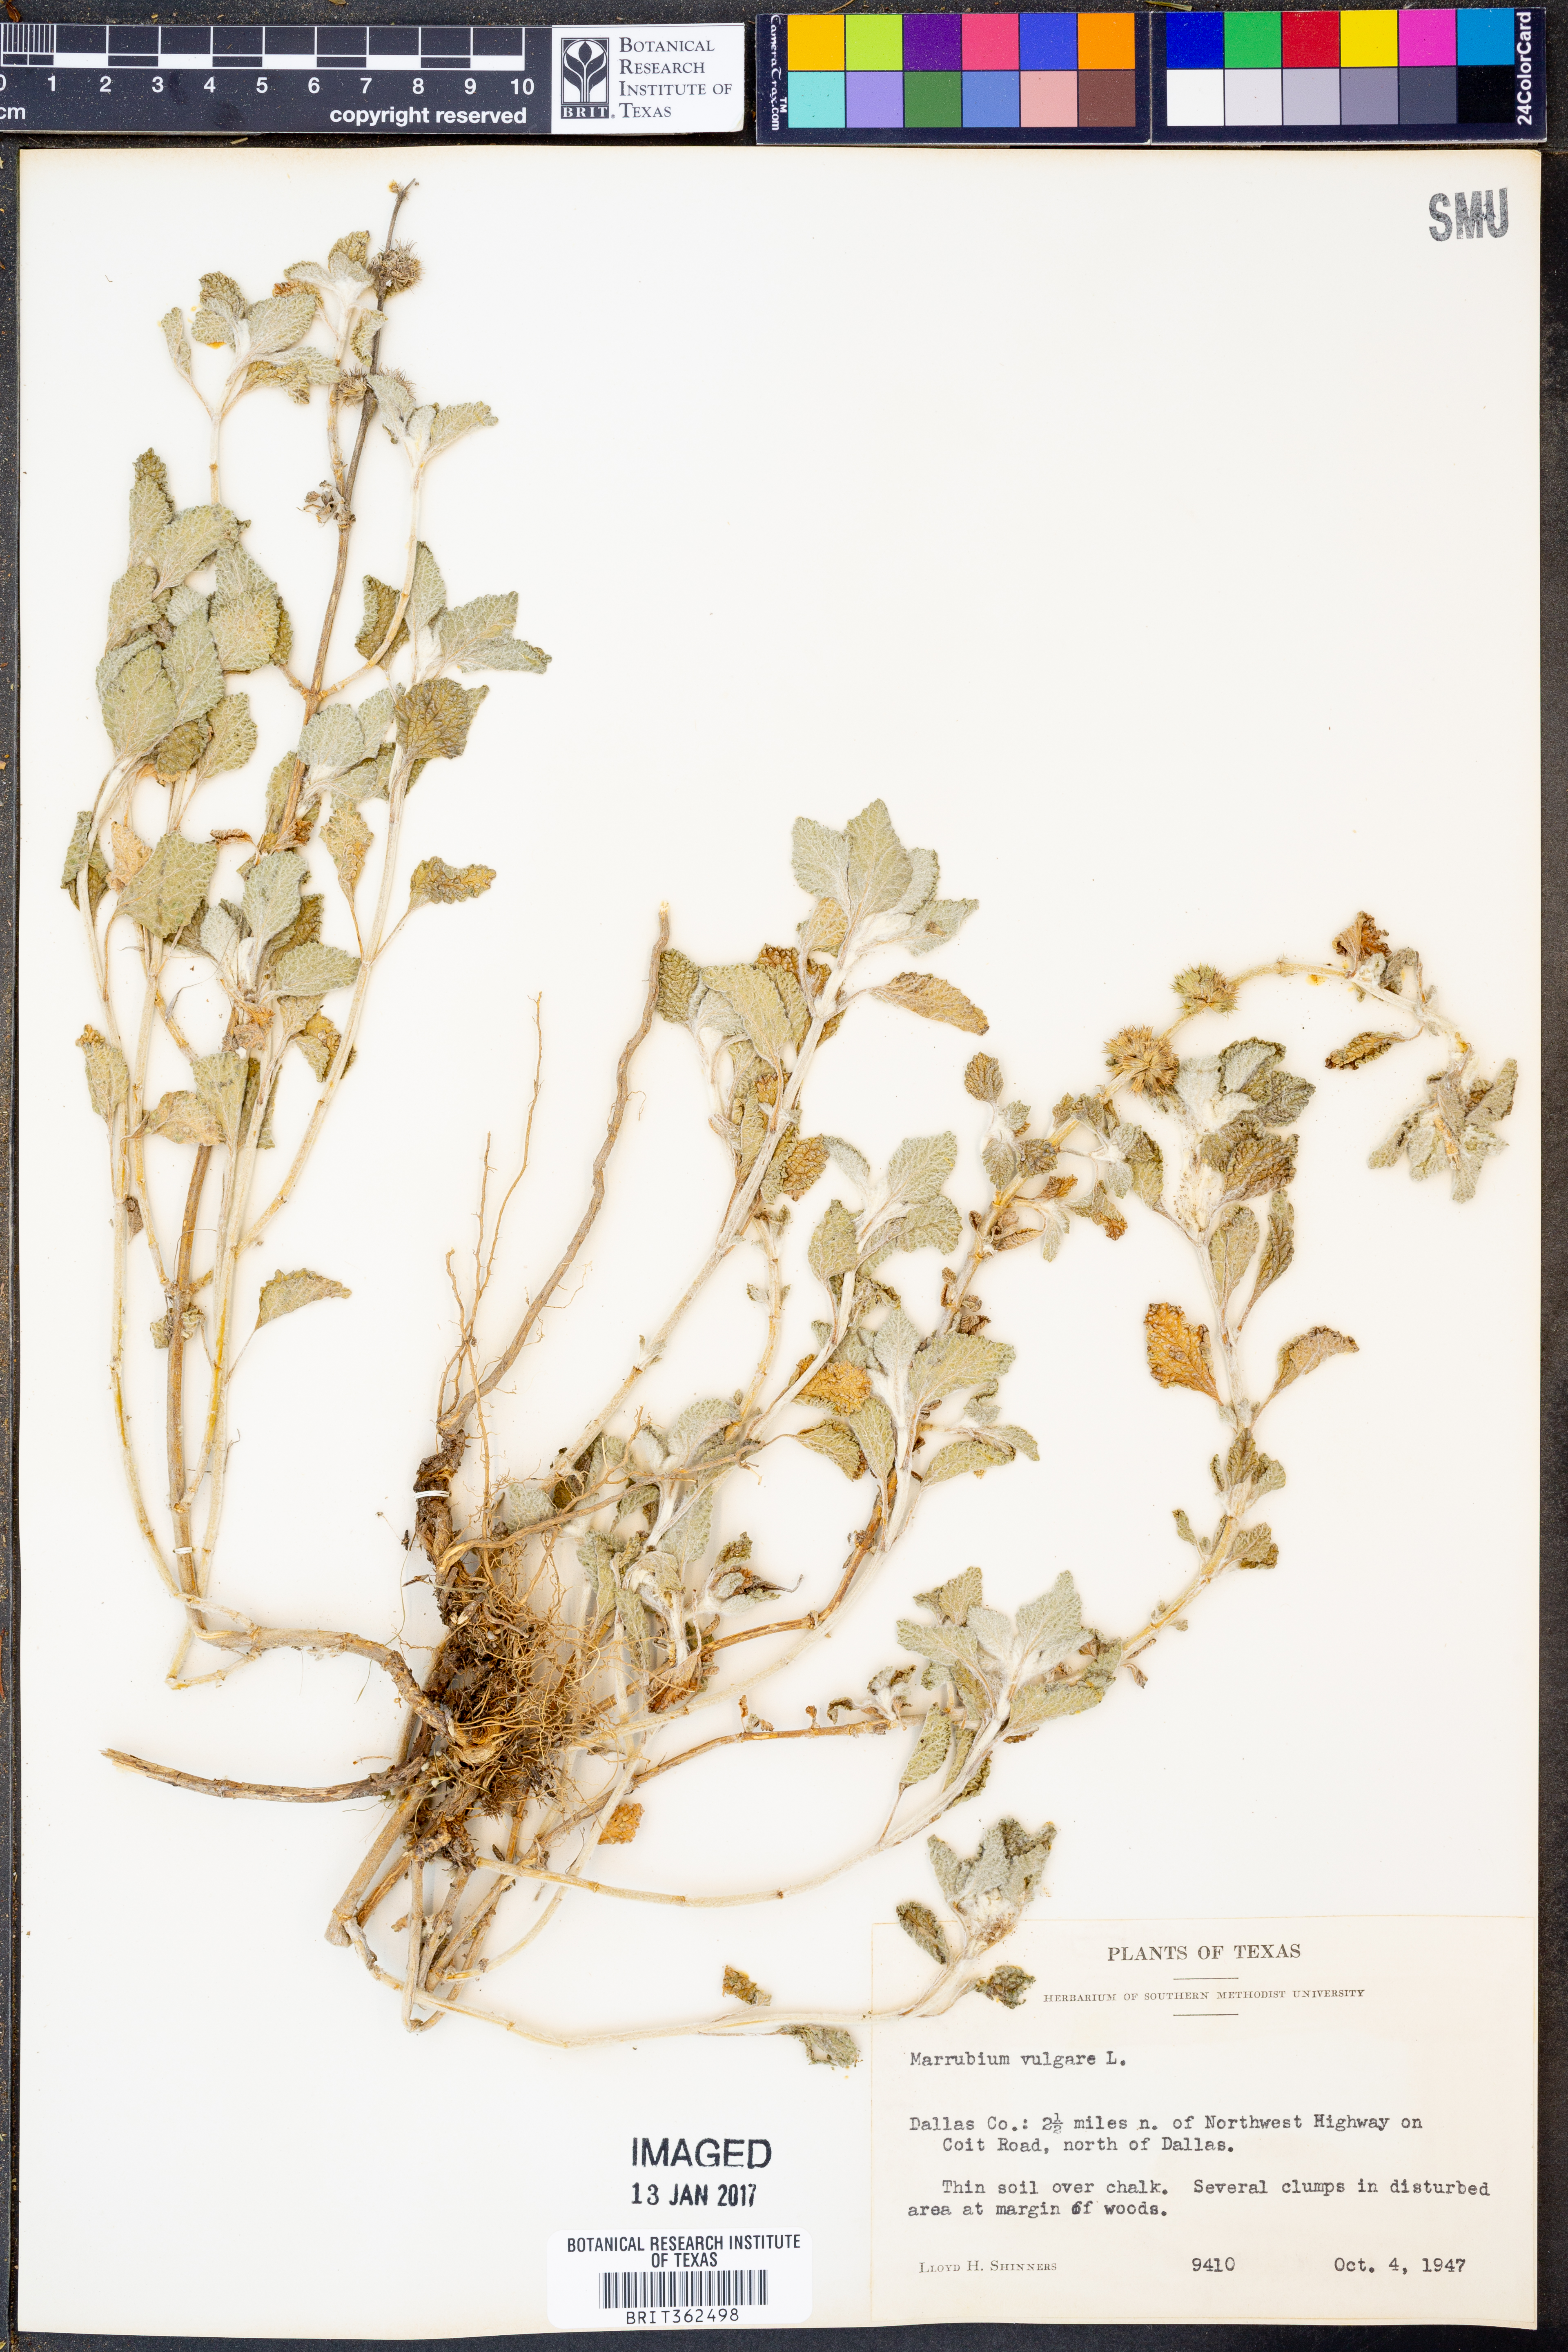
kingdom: Plantae
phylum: Tracheophyta
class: Magnoliopsida
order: Lamiales
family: Lamiaceae
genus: Marrubium
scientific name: Marrubium vulgare
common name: Horehound
